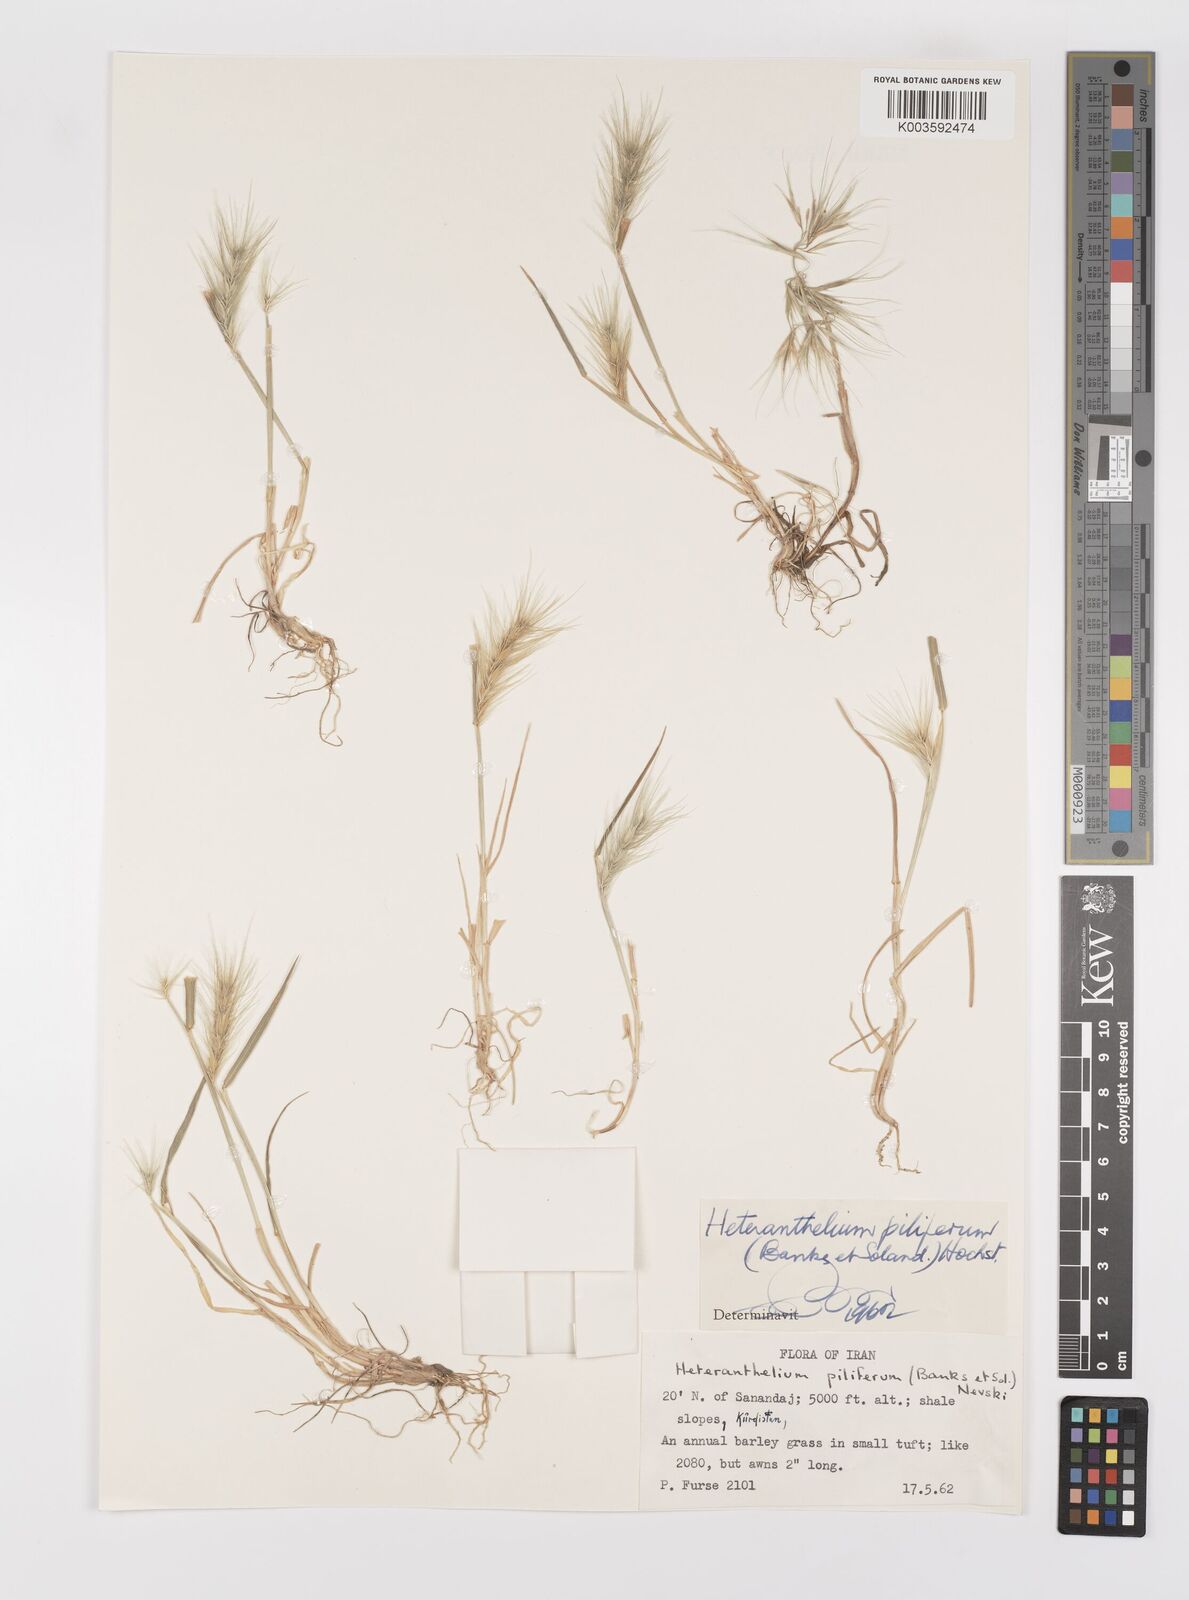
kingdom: Plantae
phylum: Tracheophyta
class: Liliopsida
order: Poales
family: Poaceae
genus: Heteranthelium
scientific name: Heteranthelium piliferum
